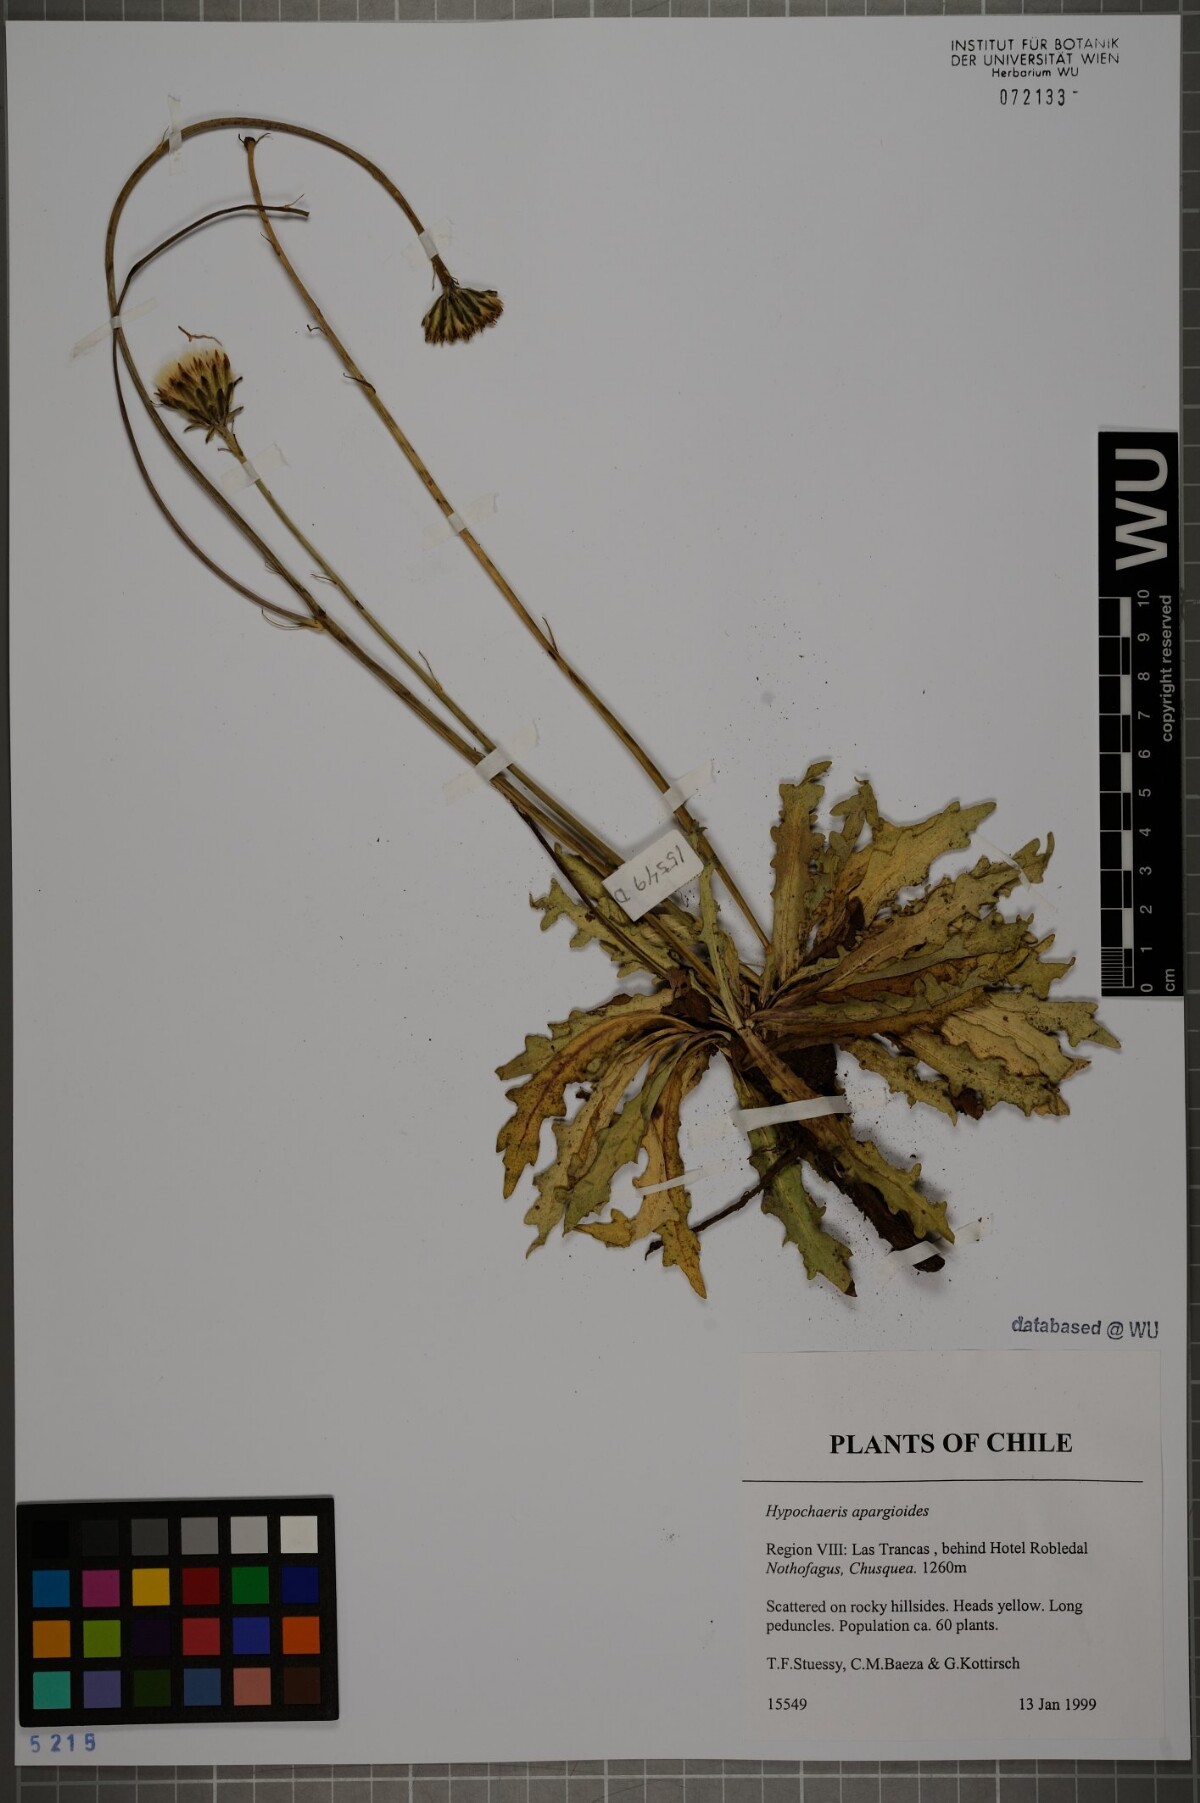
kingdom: Plantae
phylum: Tracheophyta
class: Magnoliopsida
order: Asterales
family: Asteraceae
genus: Hypochaeris
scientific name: Hypochaeris apargioides
